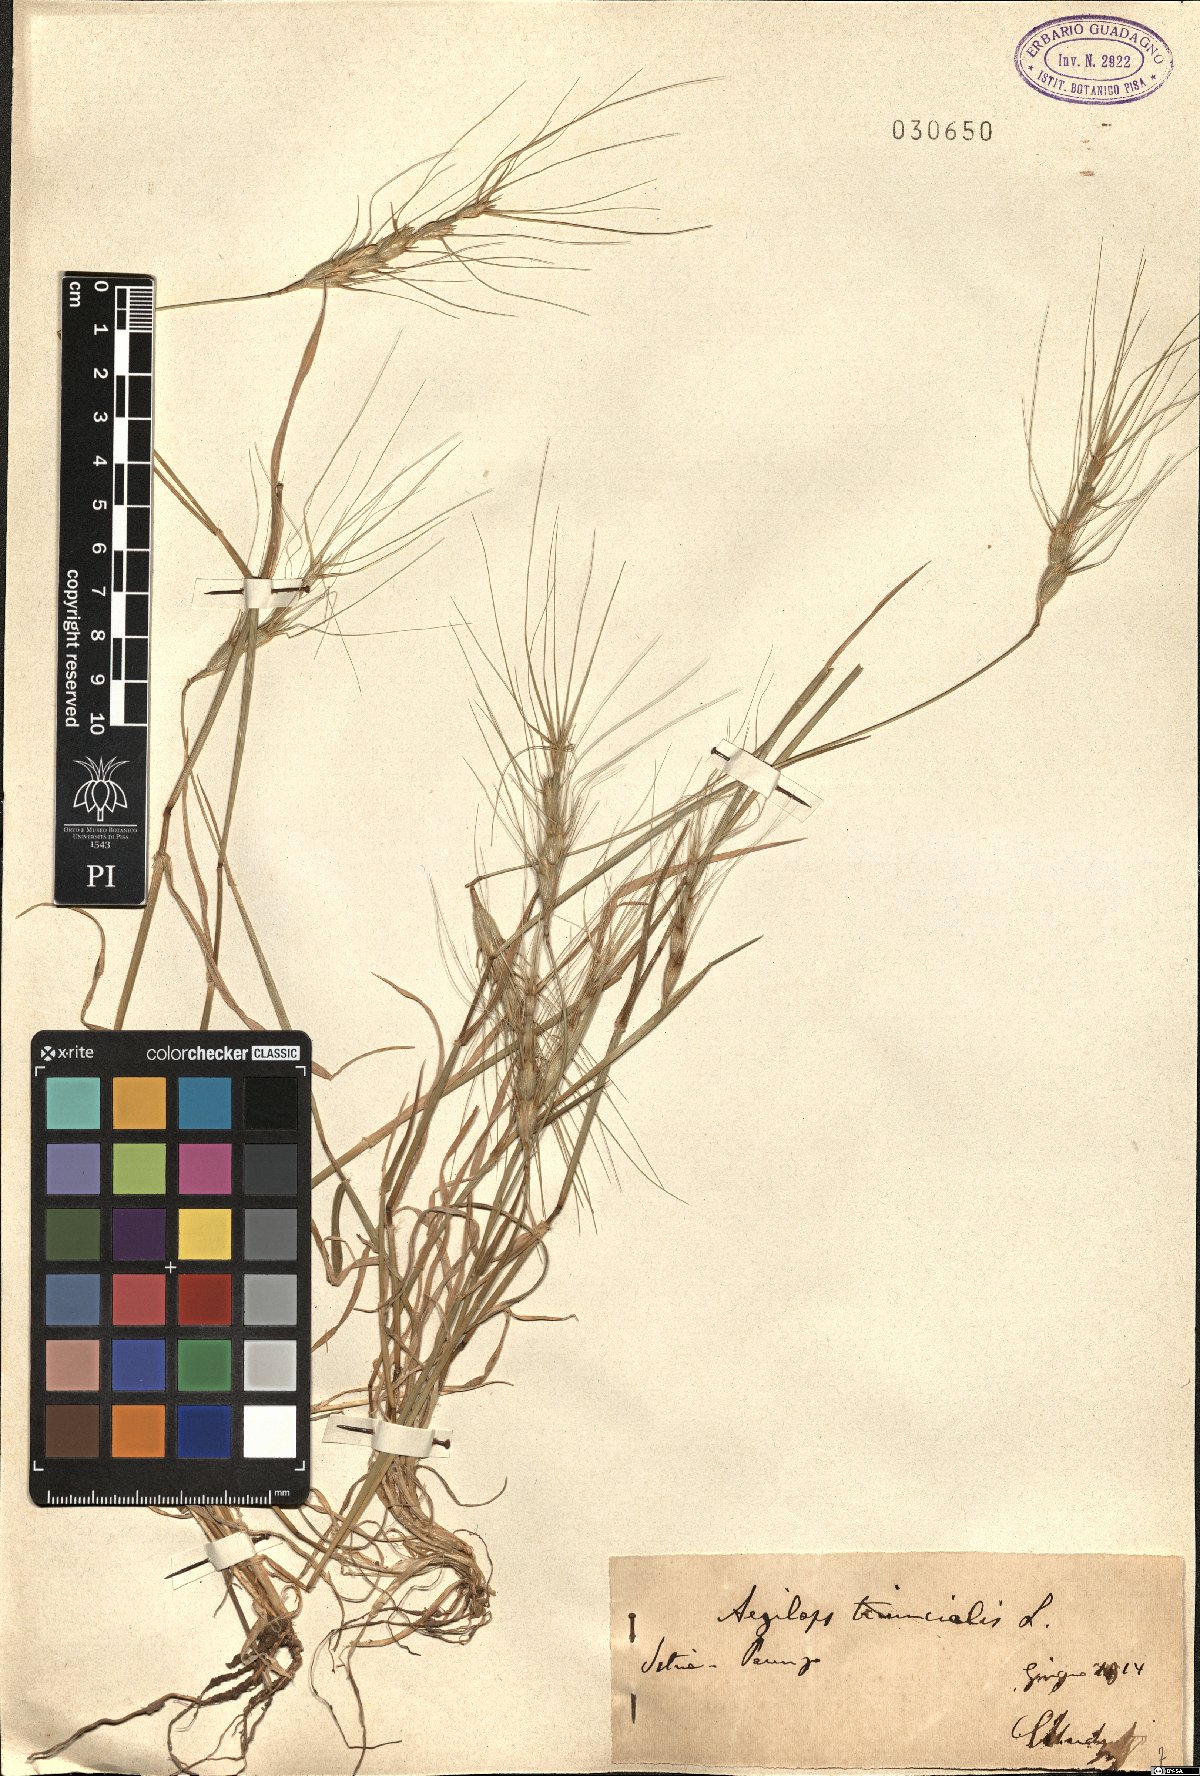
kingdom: Plantae
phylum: Tracheophyta
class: Liliopsida
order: Poales
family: Poaceae
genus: Aegilops
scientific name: Aegilops triuncialis
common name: Barb goat grass
